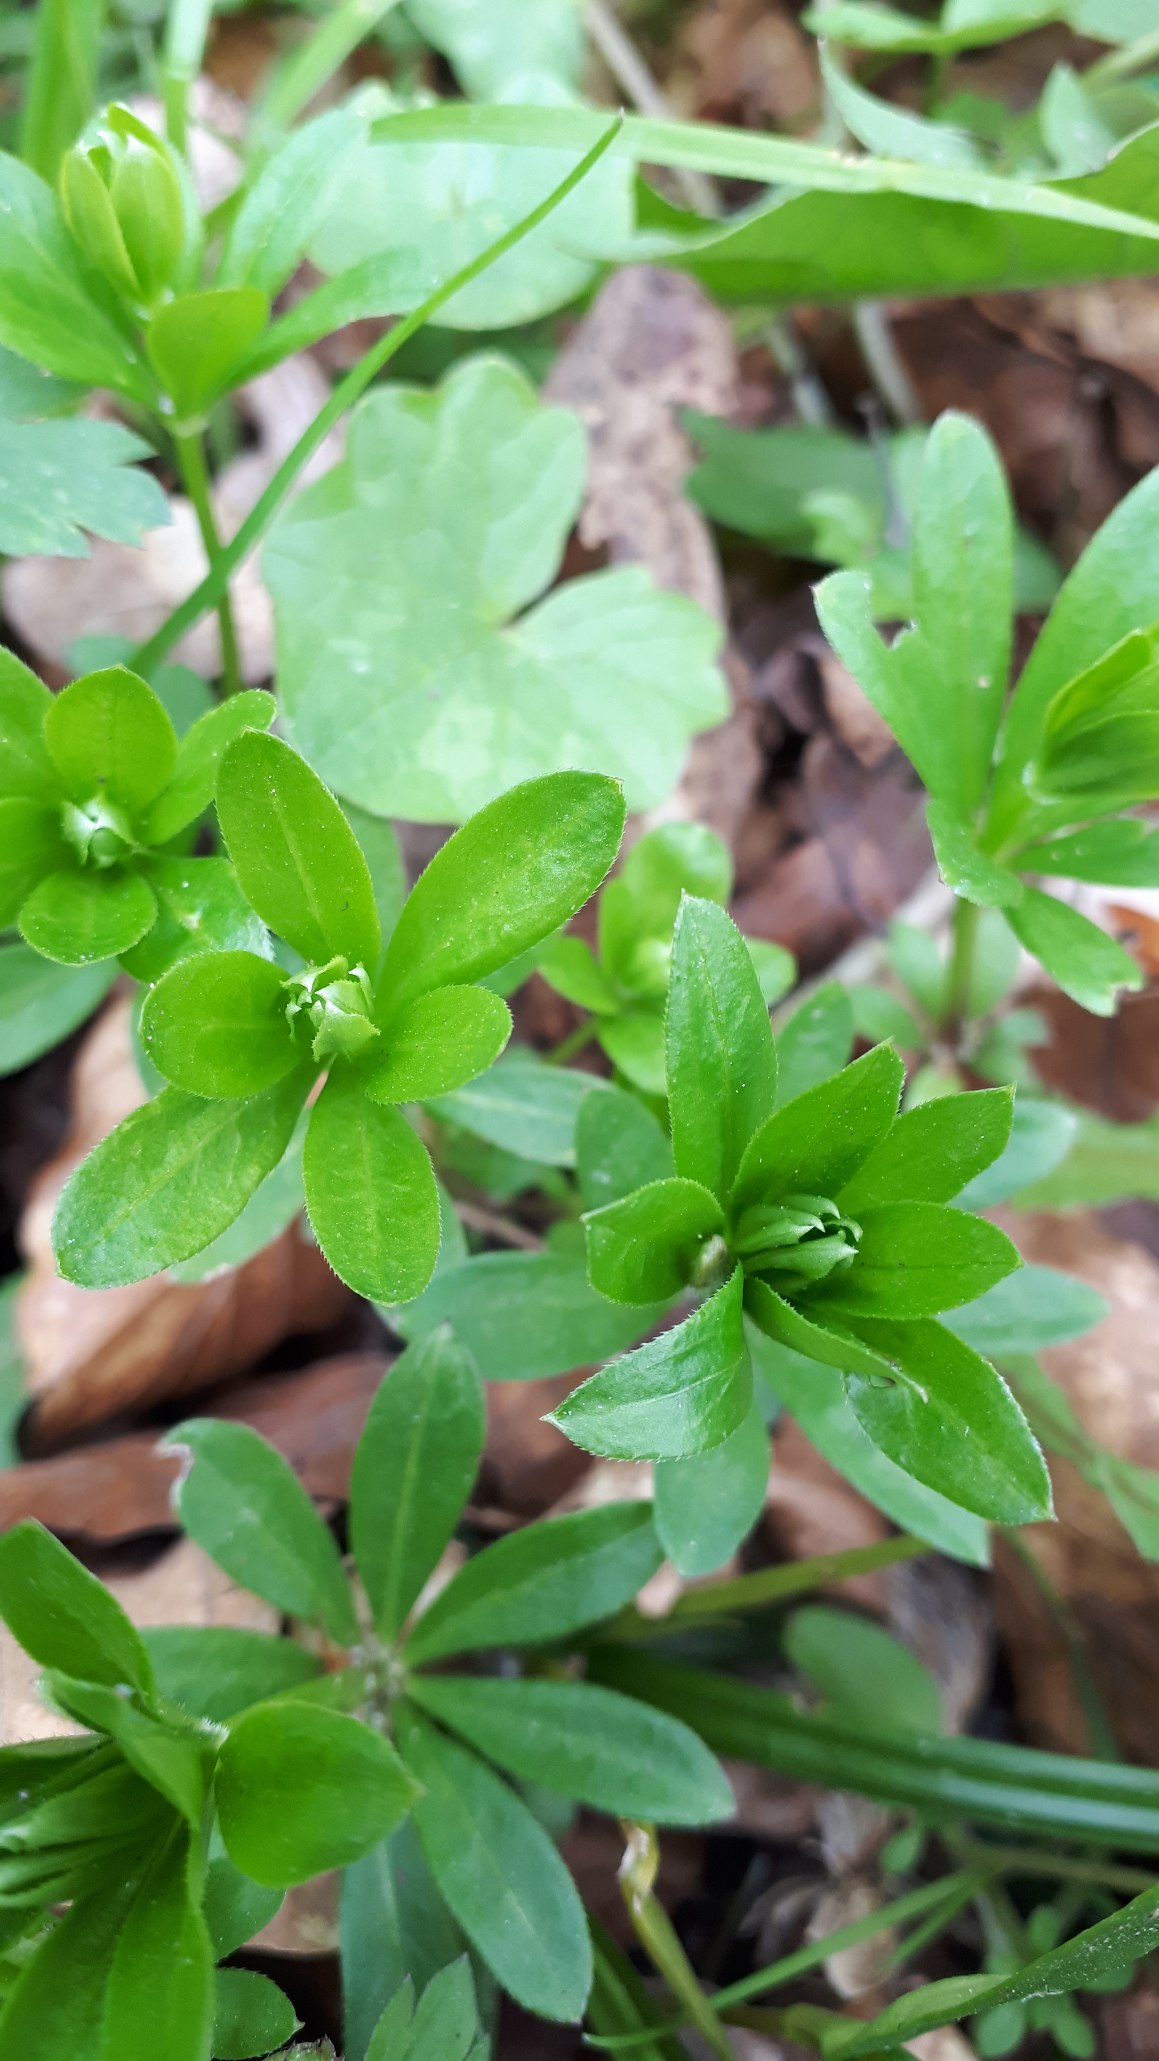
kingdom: Plantae
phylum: Tracheophyta
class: Magnoliopsida
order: Gentianales
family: Rubiaceae
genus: Galium
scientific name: Galium odoratum
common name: Skovmærke
